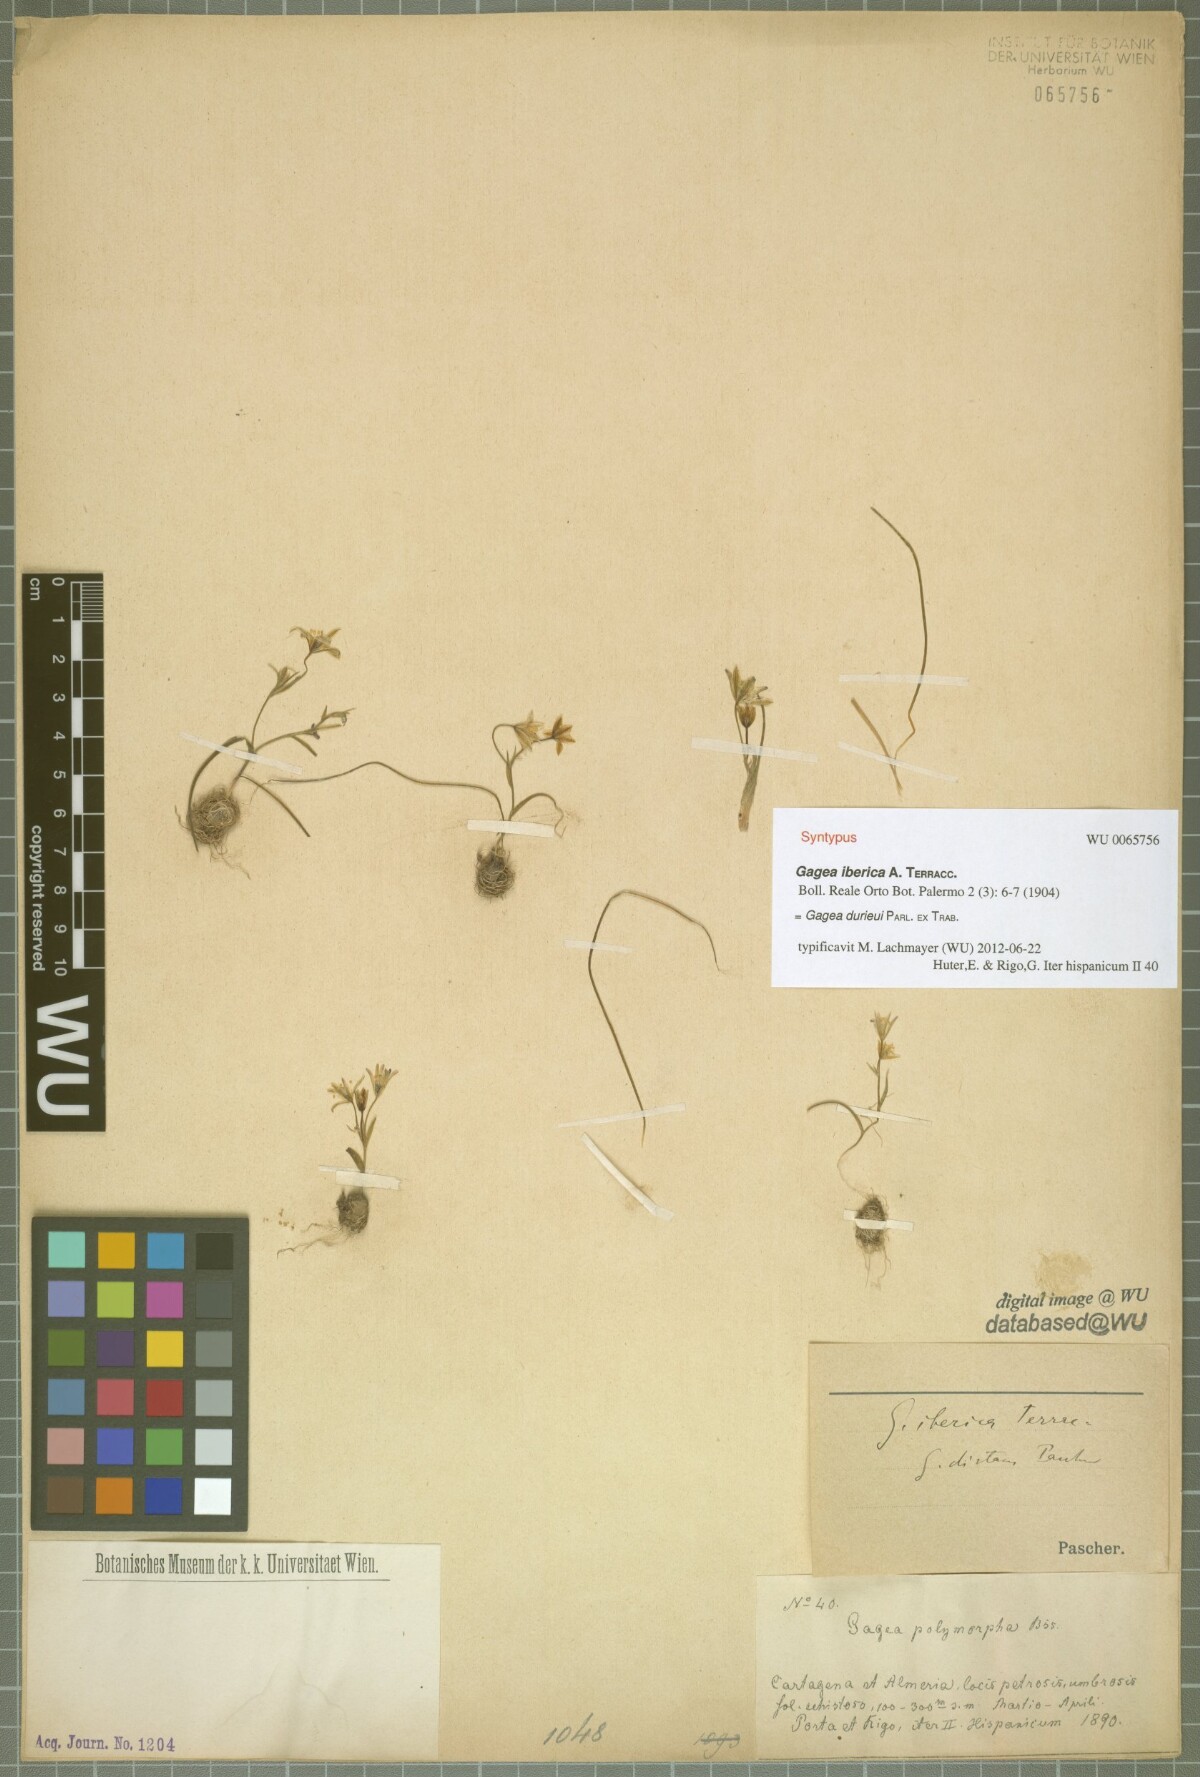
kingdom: Plantae
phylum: Tracheophyta
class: Liliopsida
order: Liliales
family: Liliaceae
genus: Gagea
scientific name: Gagea durieui
